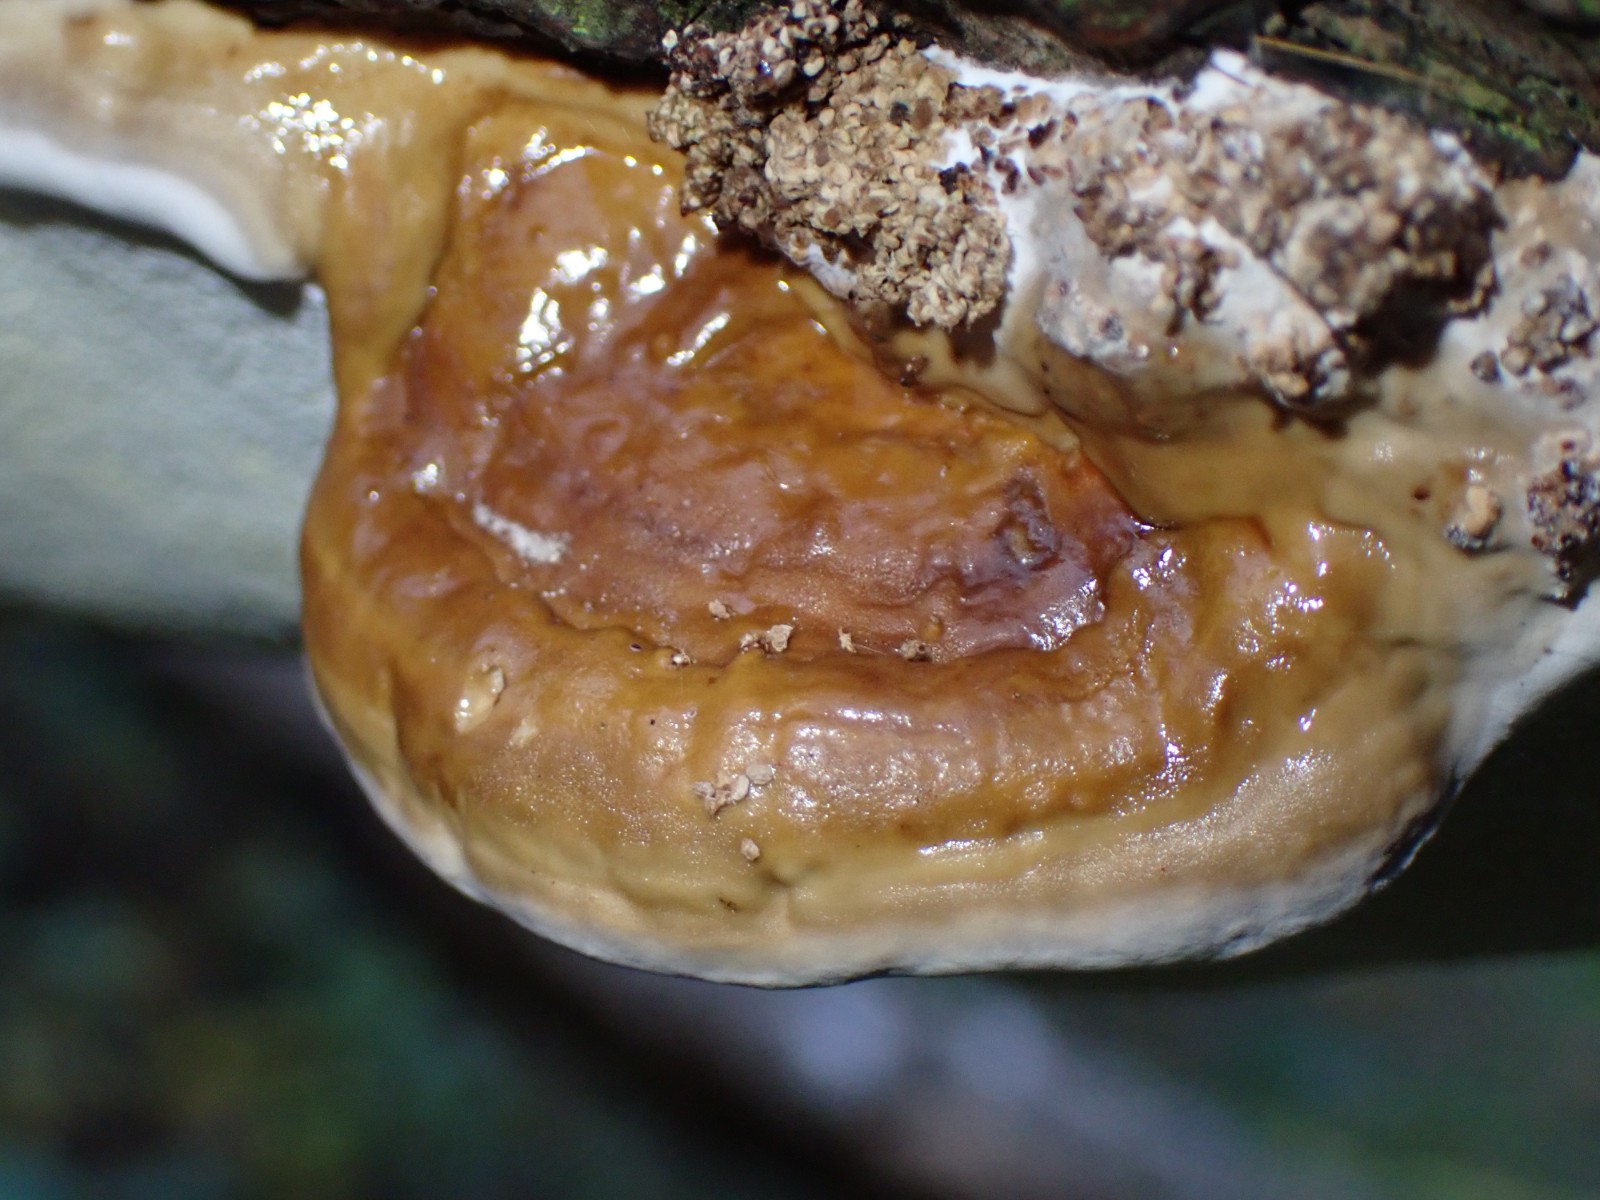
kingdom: Fungi
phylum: Basidiomycota
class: Agaricomycetes
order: Polyporales
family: Fomitopsidaceae
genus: Fomitopsis
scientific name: Fomitopsis pinicola
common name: randbæltet hovporesvamp
